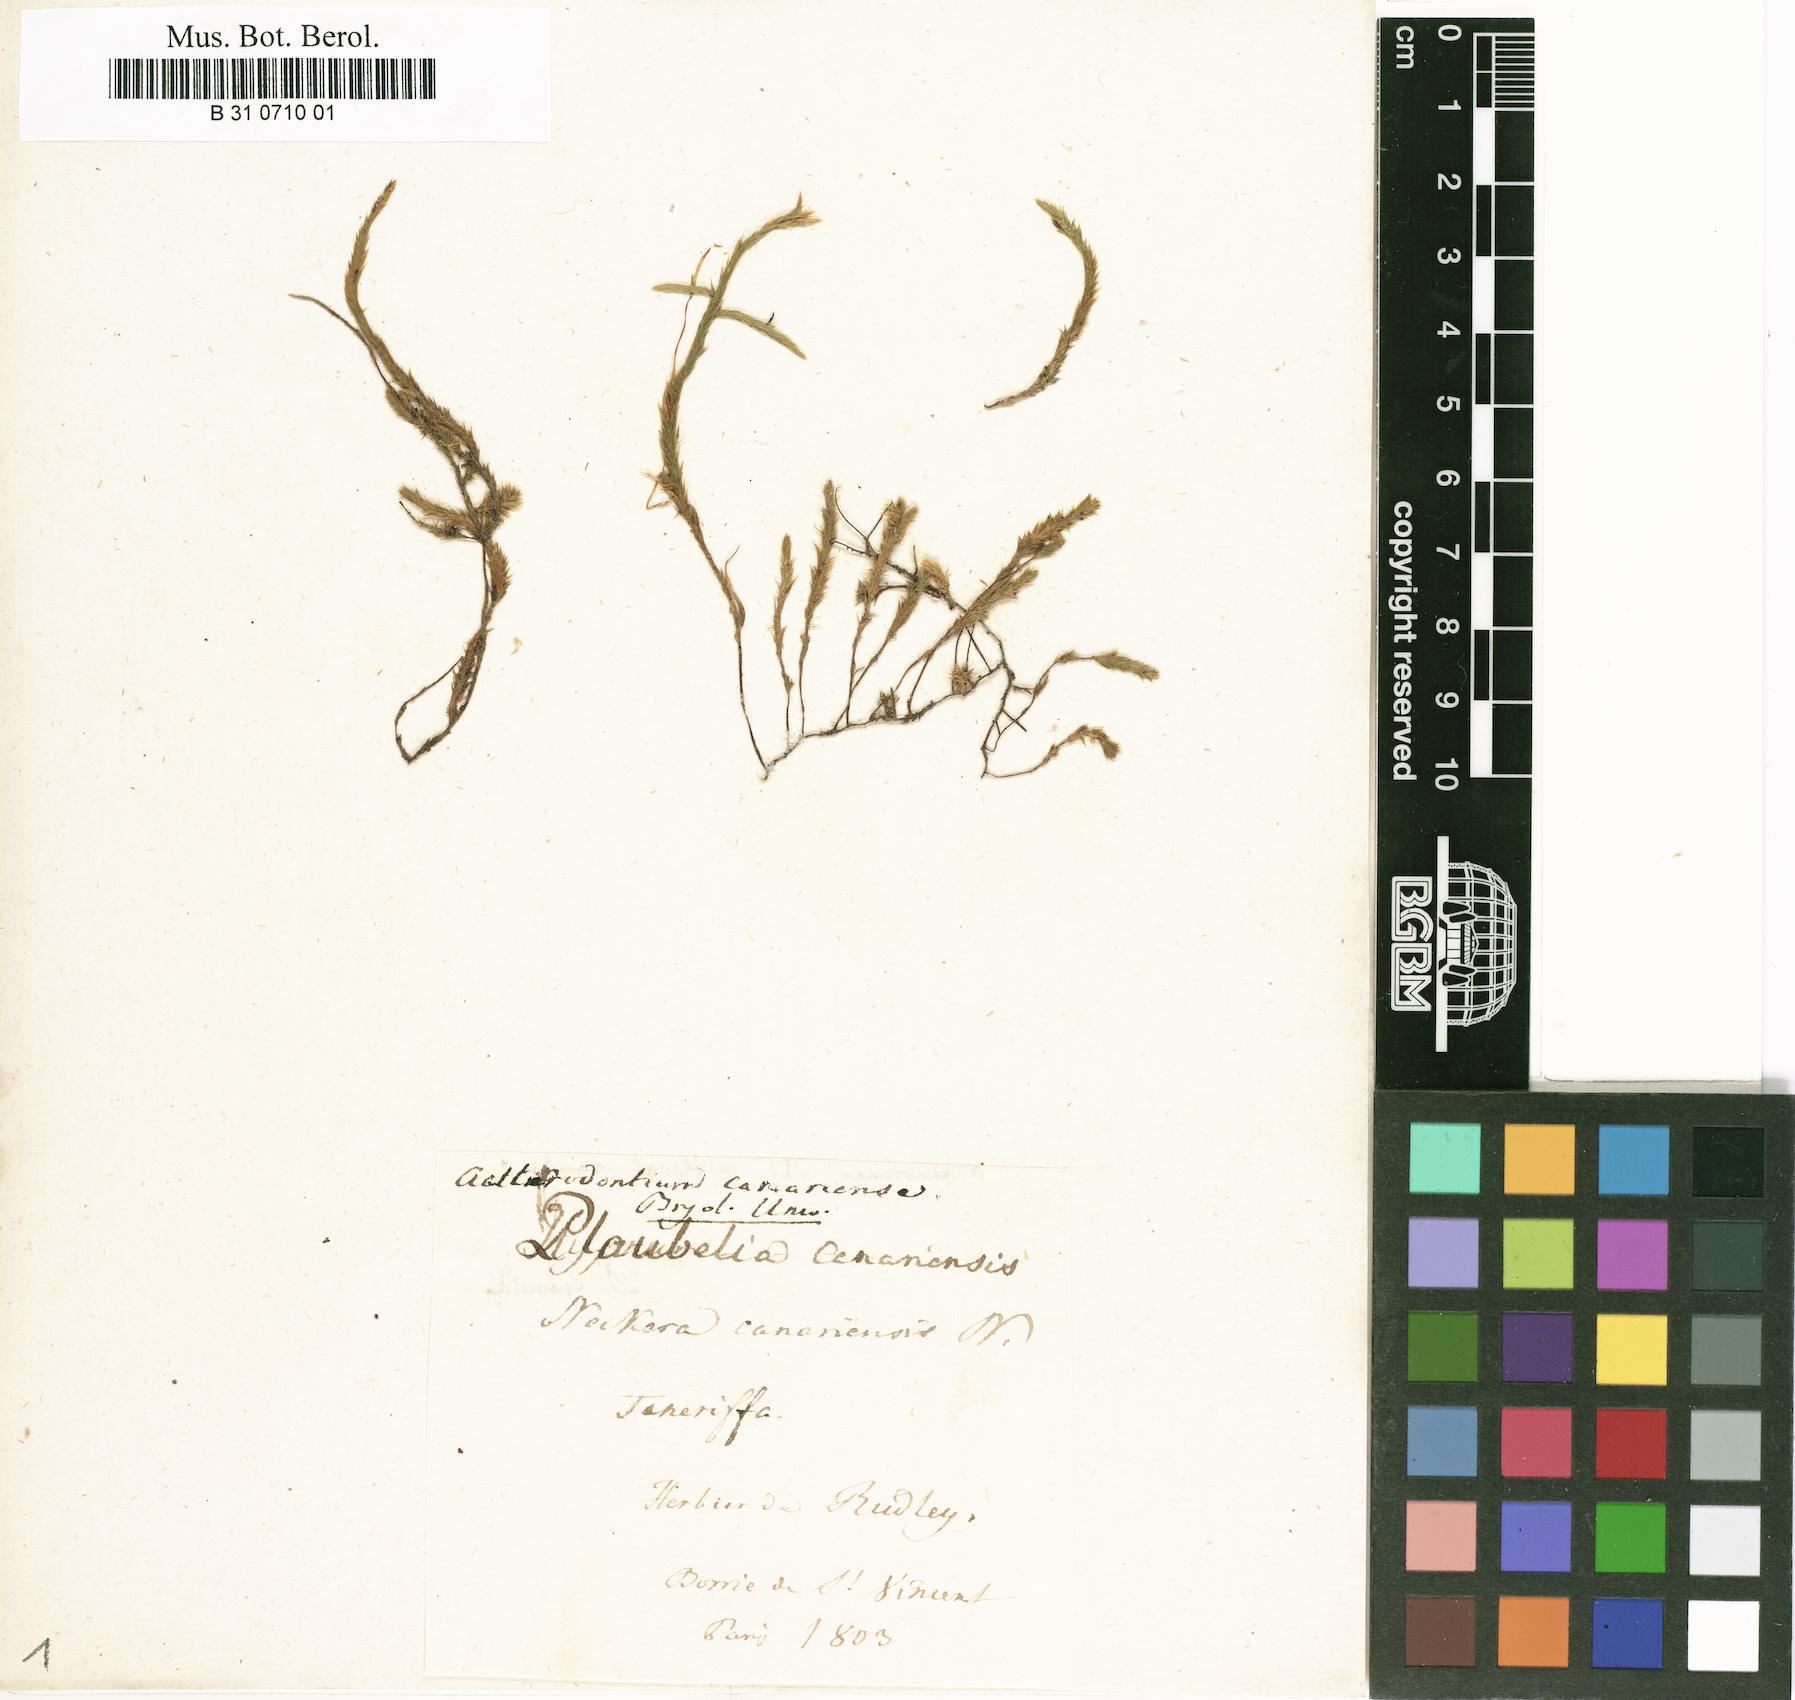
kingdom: Plantae
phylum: Bryophyta
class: Bryopsida
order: Hypnales
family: Leucodontaceae
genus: Leucodon
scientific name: Leucodon canariensis
